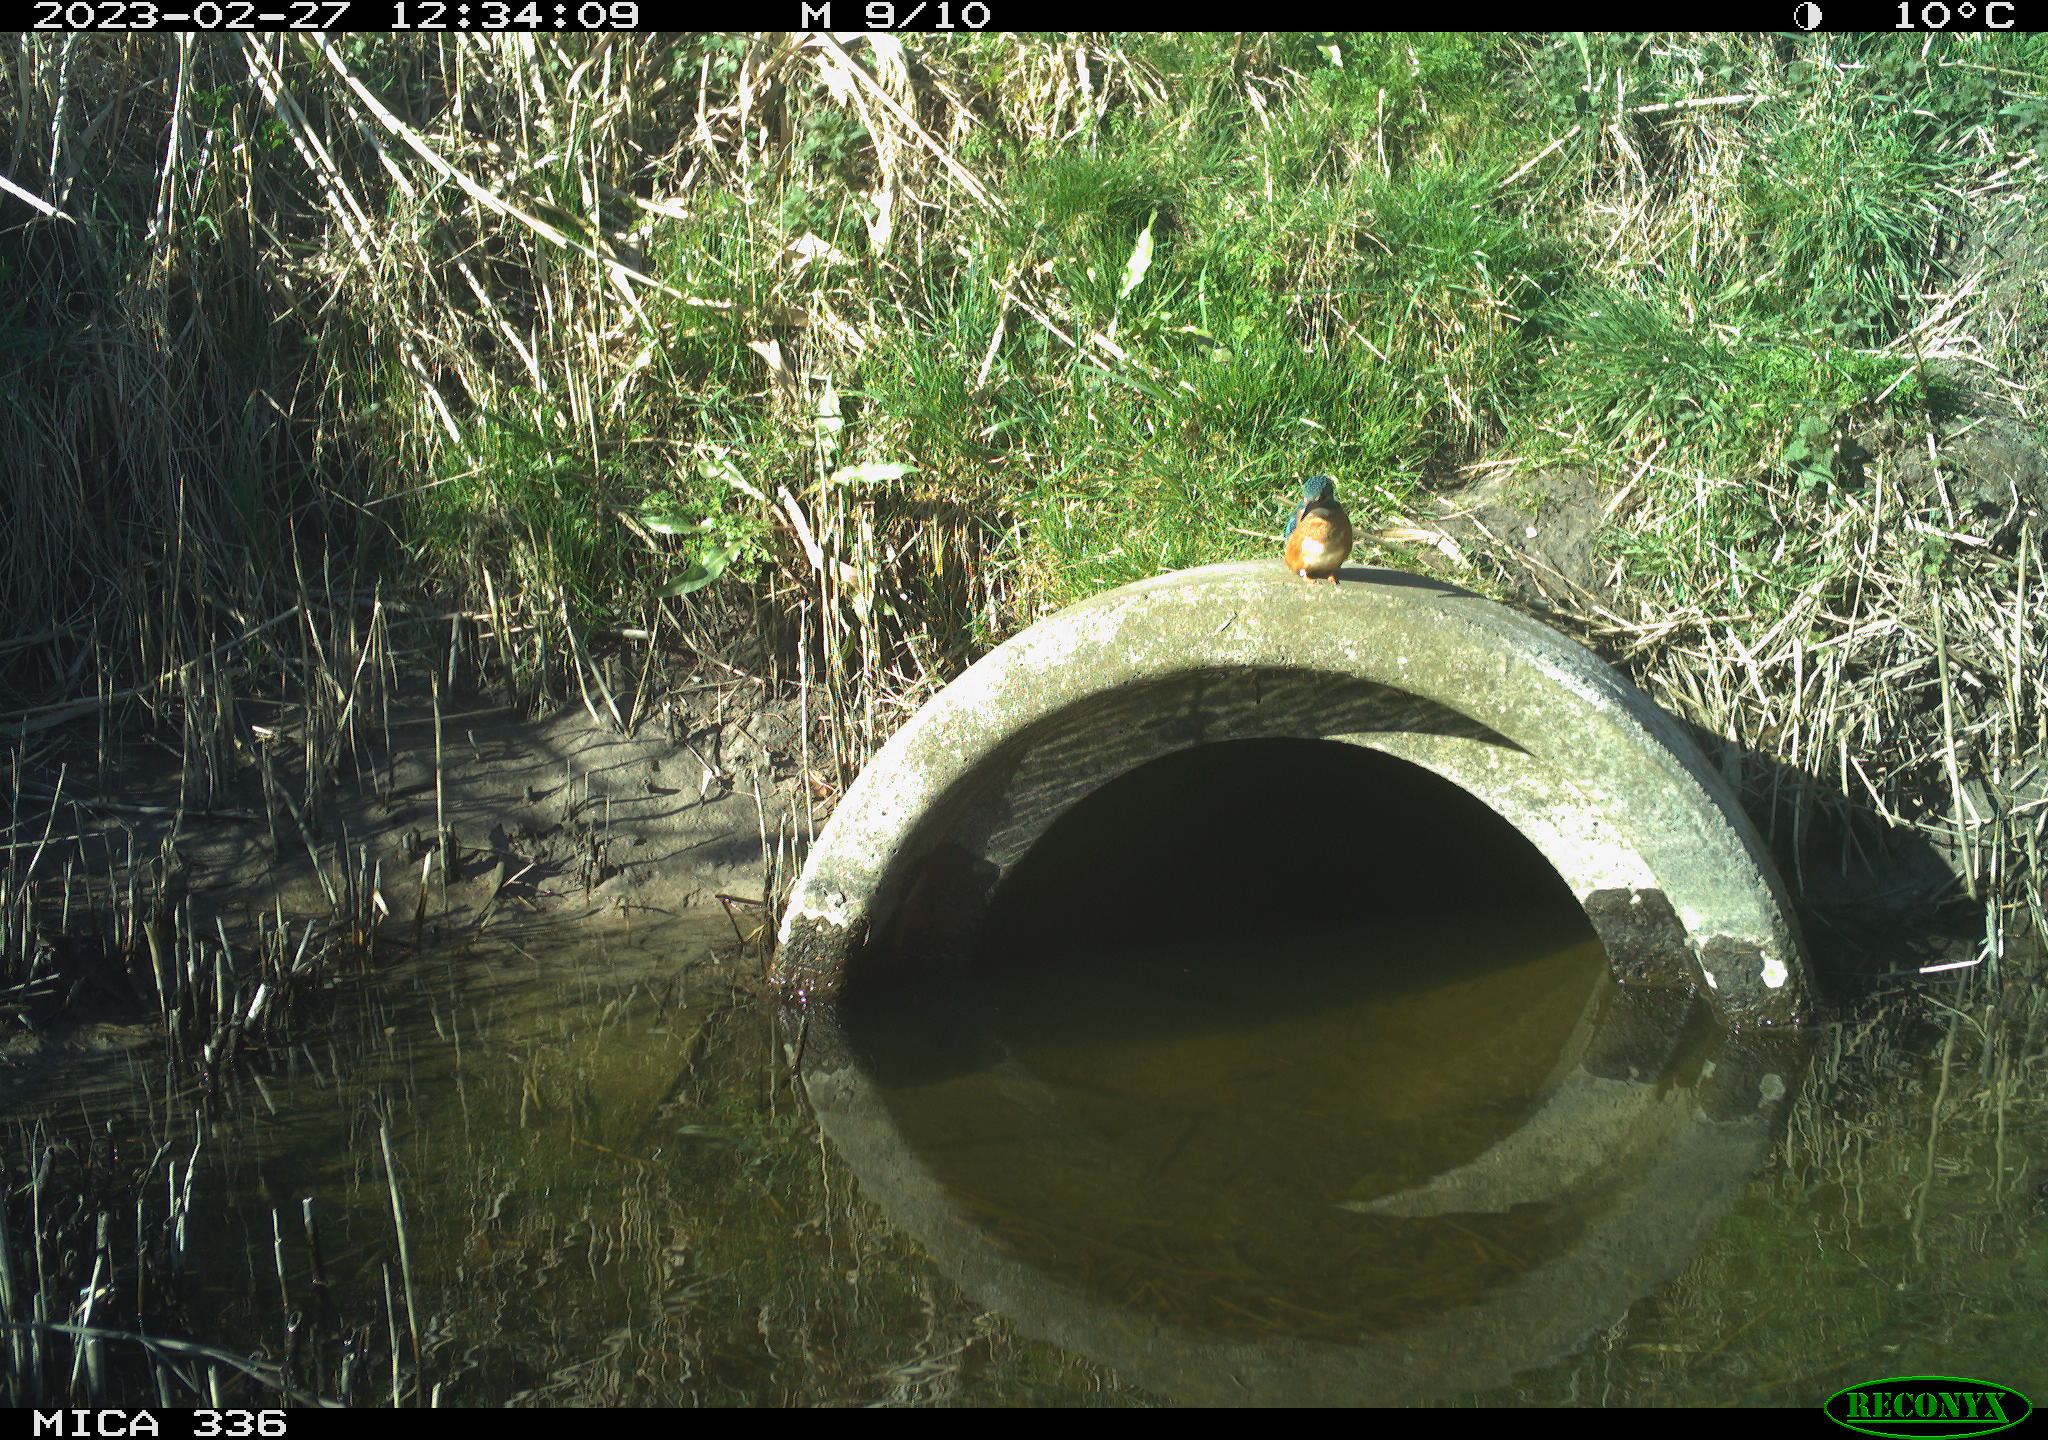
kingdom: Animalia
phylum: Chordata
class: Aves
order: Coraciiformes
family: Alcedinidae
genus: Alcedo
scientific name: Alcedo atthis
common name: Common kingfisher
